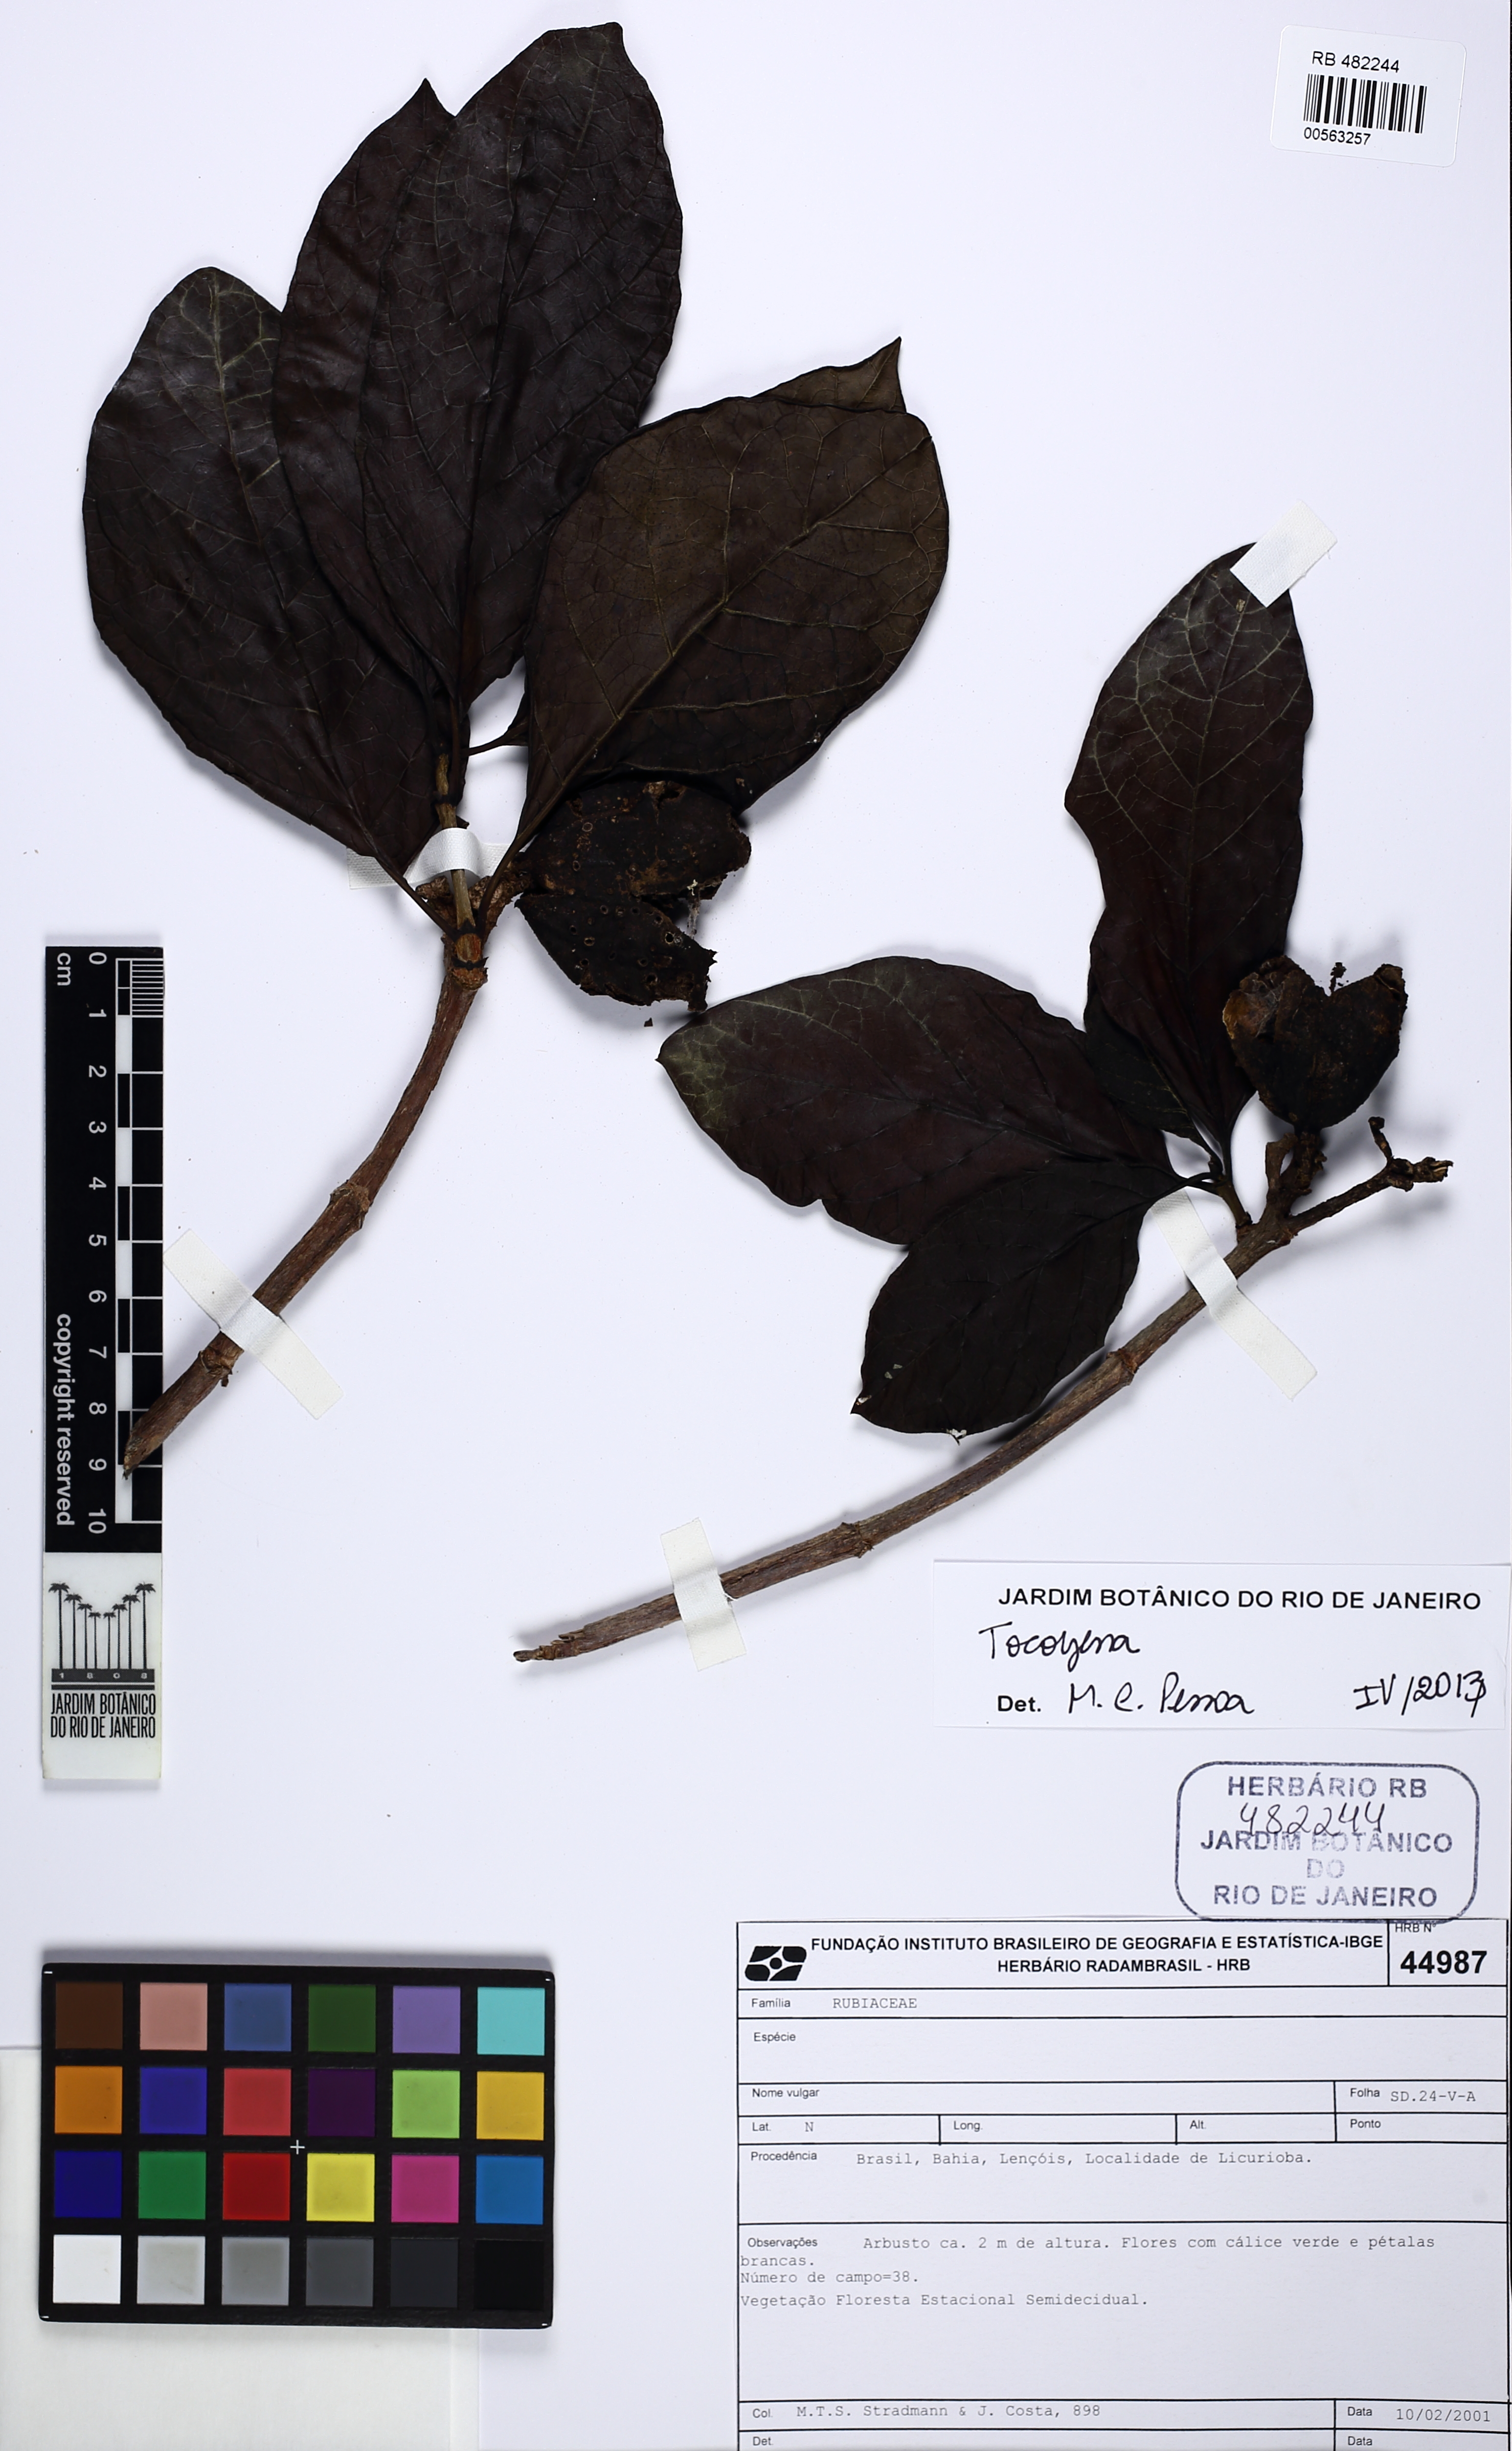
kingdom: Plantae
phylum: Tracheophyta
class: Magnoliopsida
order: Gentianales
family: Rubiaceae
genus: Tocoyena
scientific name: Tocoyena sellowiana
